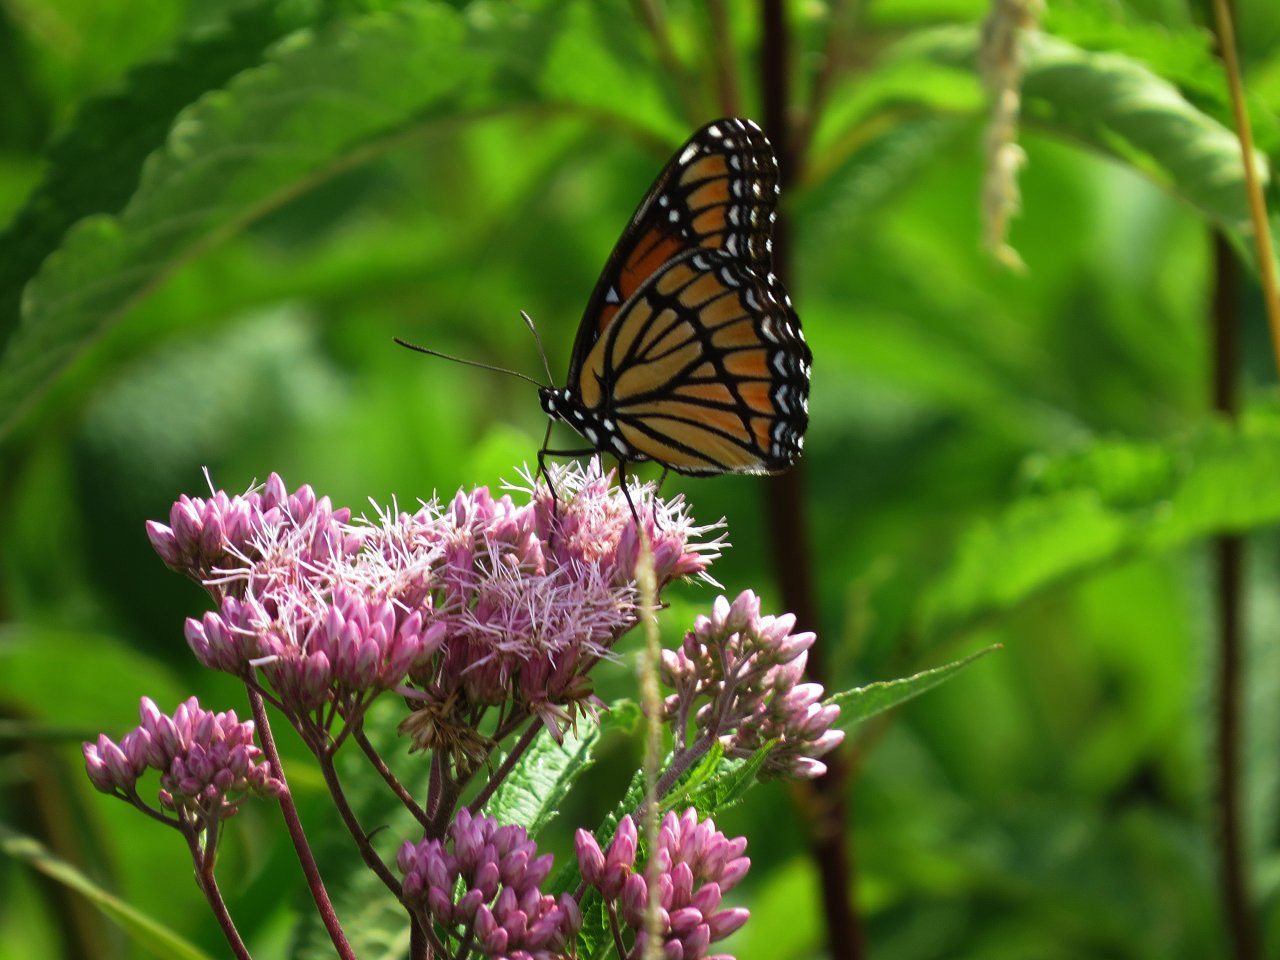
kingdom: Animalia
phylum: Arthropoda
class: Insecta
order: Lepidoptera
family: Nymphalidae
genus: Limenitis
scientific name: Limenitis archippus
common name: Viceroy
